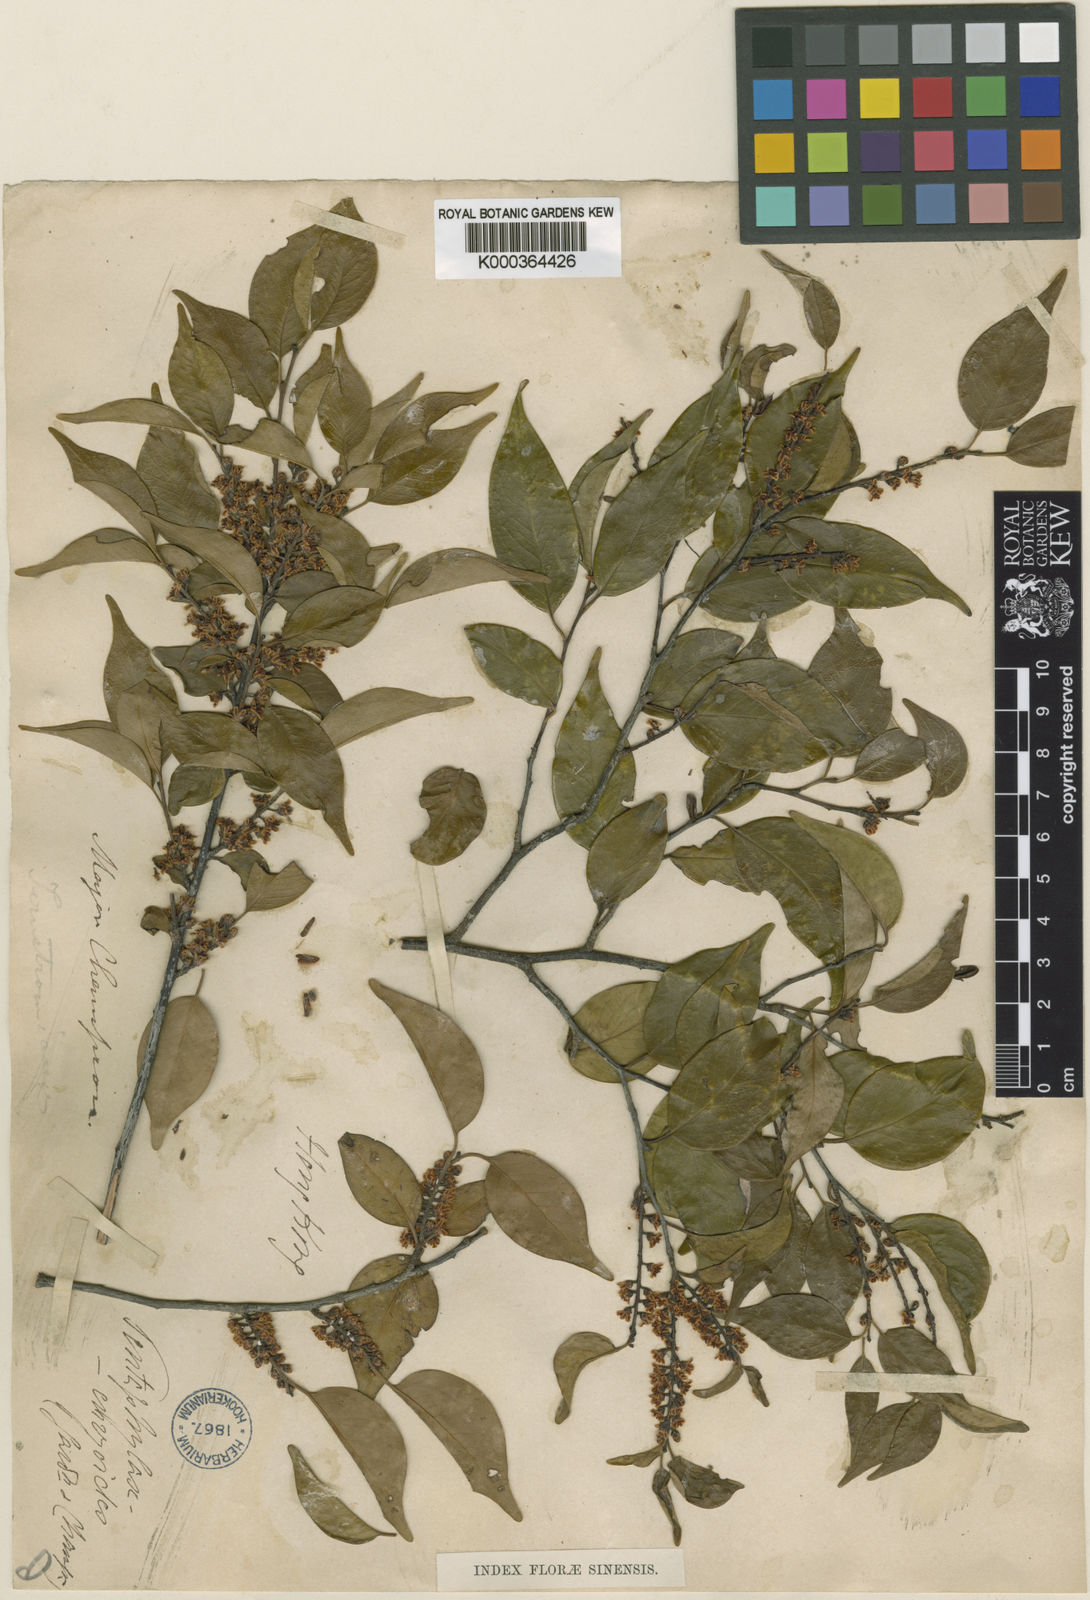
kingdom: Plantae
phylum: Tracheophyta
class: Magnoliopsida
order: Ericales
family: Pentaphylacaceae
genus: Pentaphylax
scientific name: Pentaphylax euryoides
